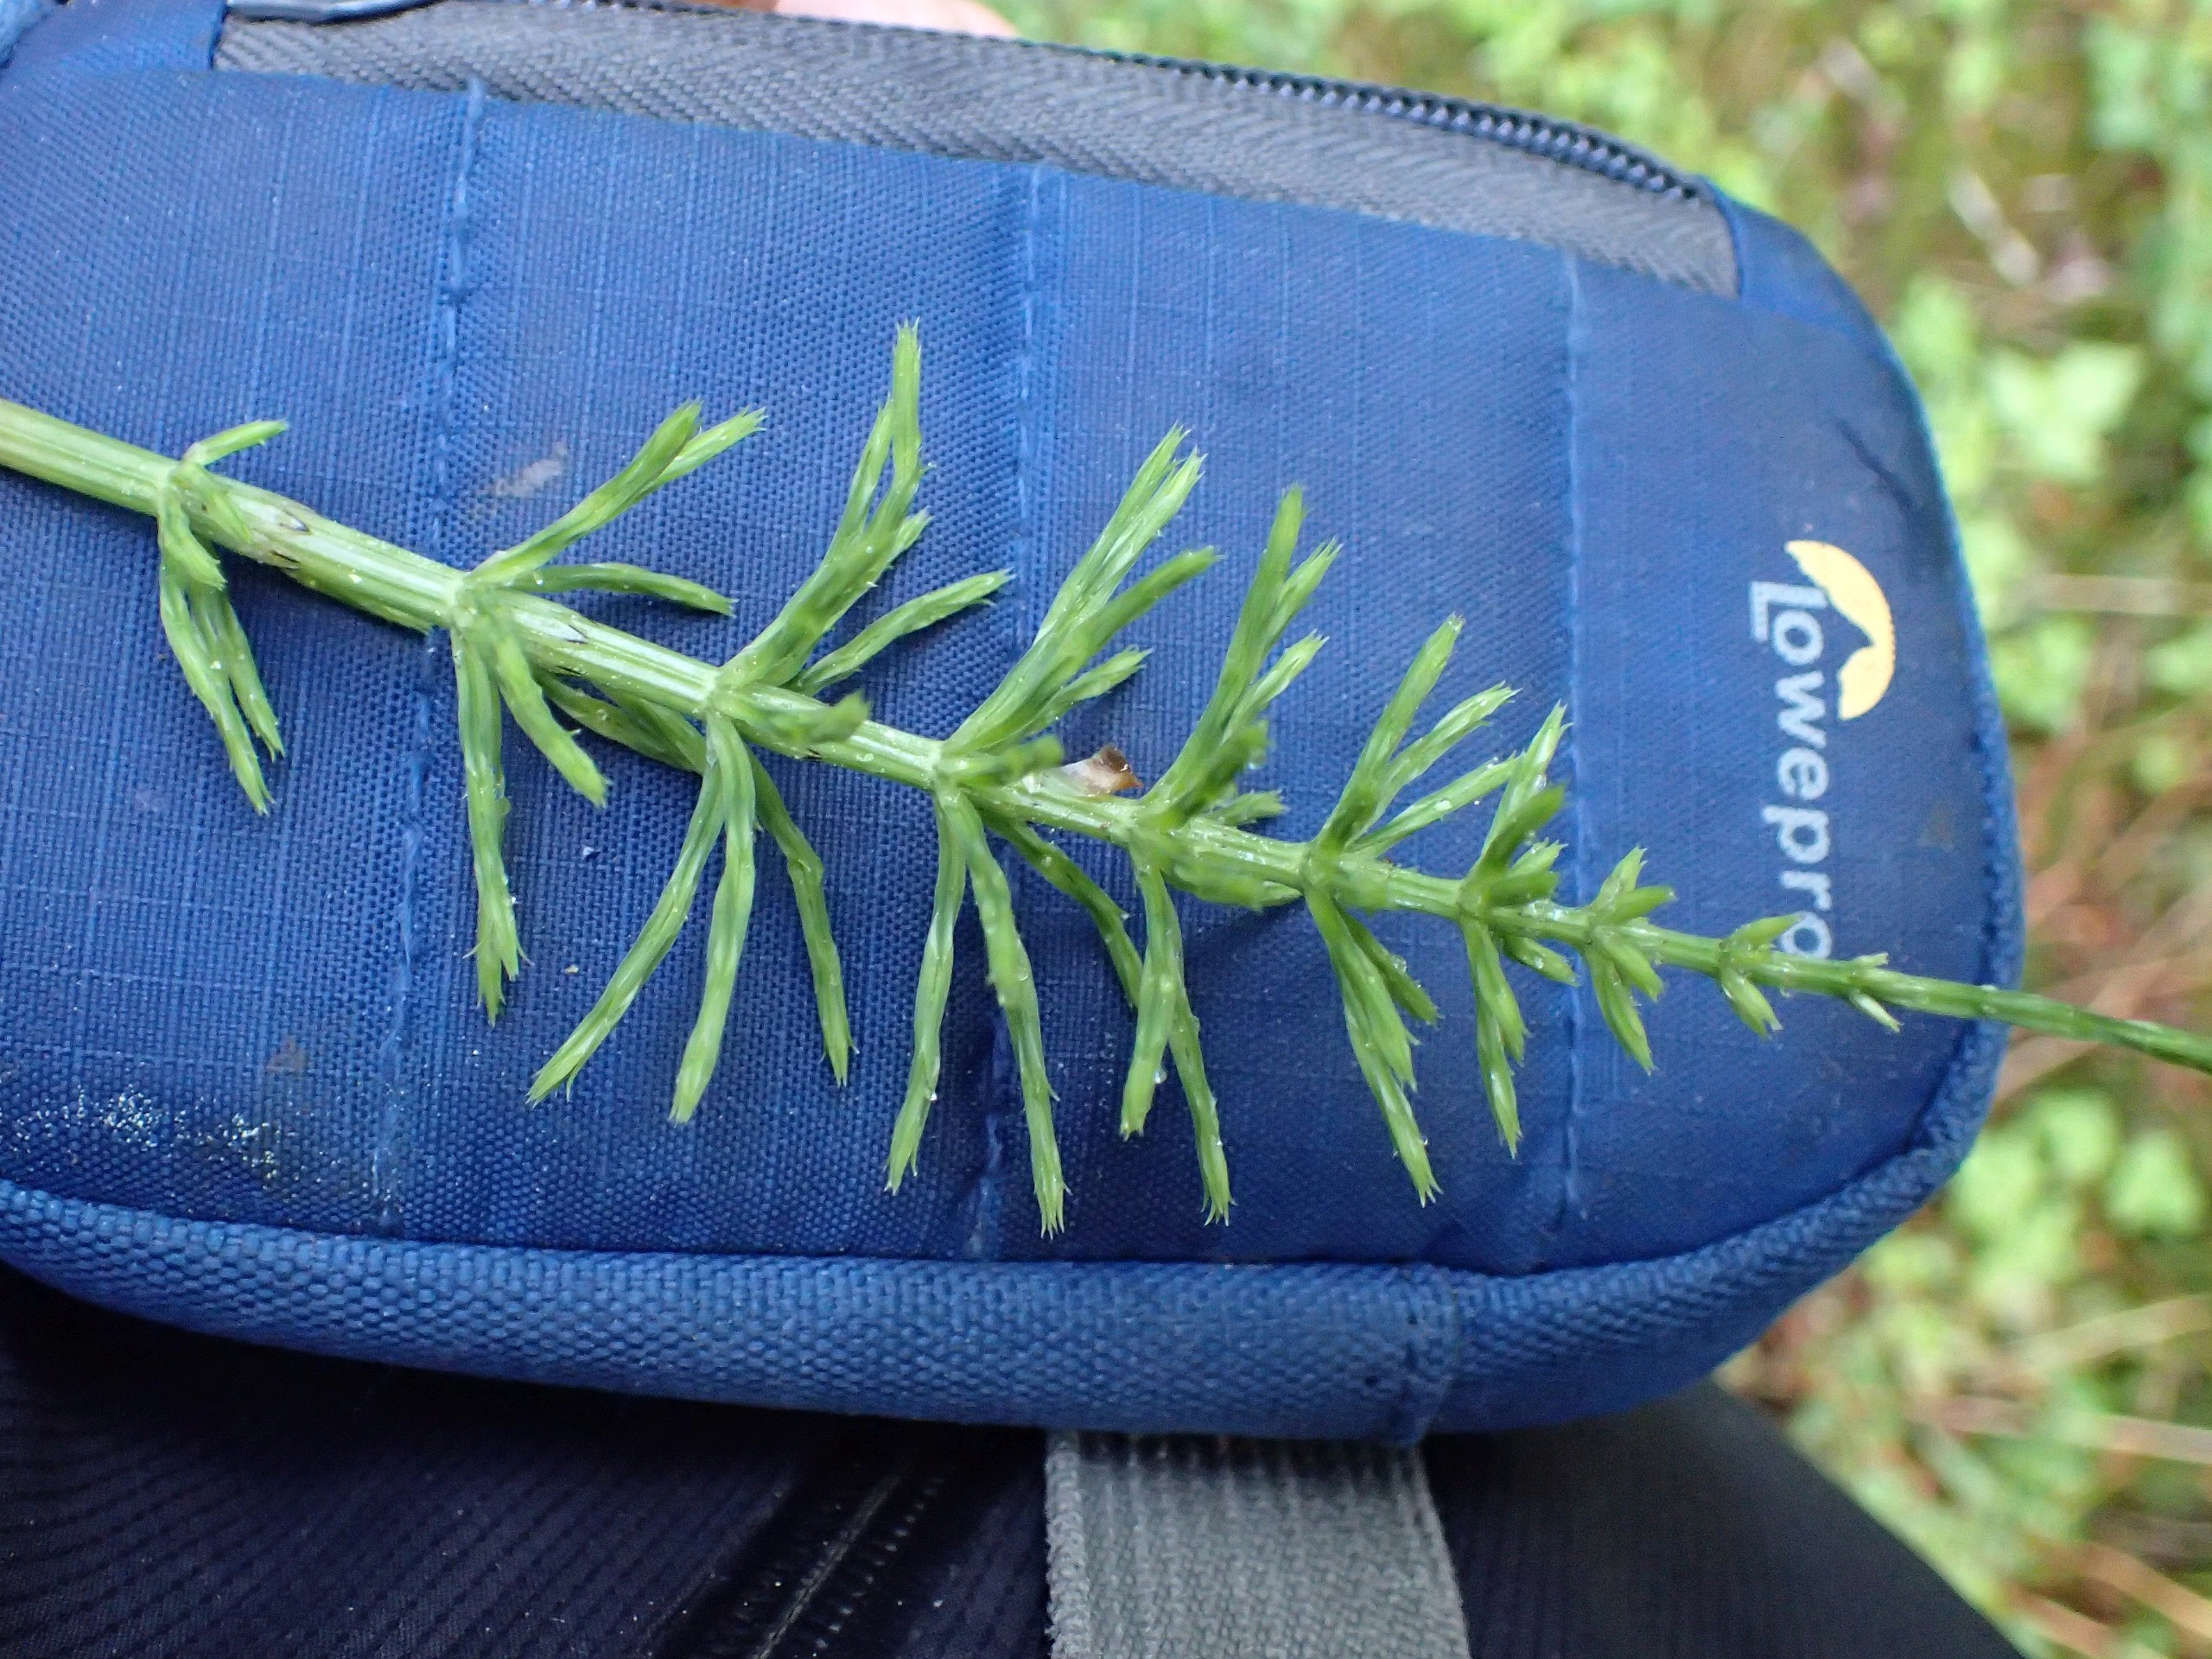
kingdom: Plantae
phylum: Tracheophyta
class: Polypodiopsida
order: Equisetales
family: Equisetaceae
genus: Equisetum
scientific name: Equisetum arvense
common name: Ager-padderok
